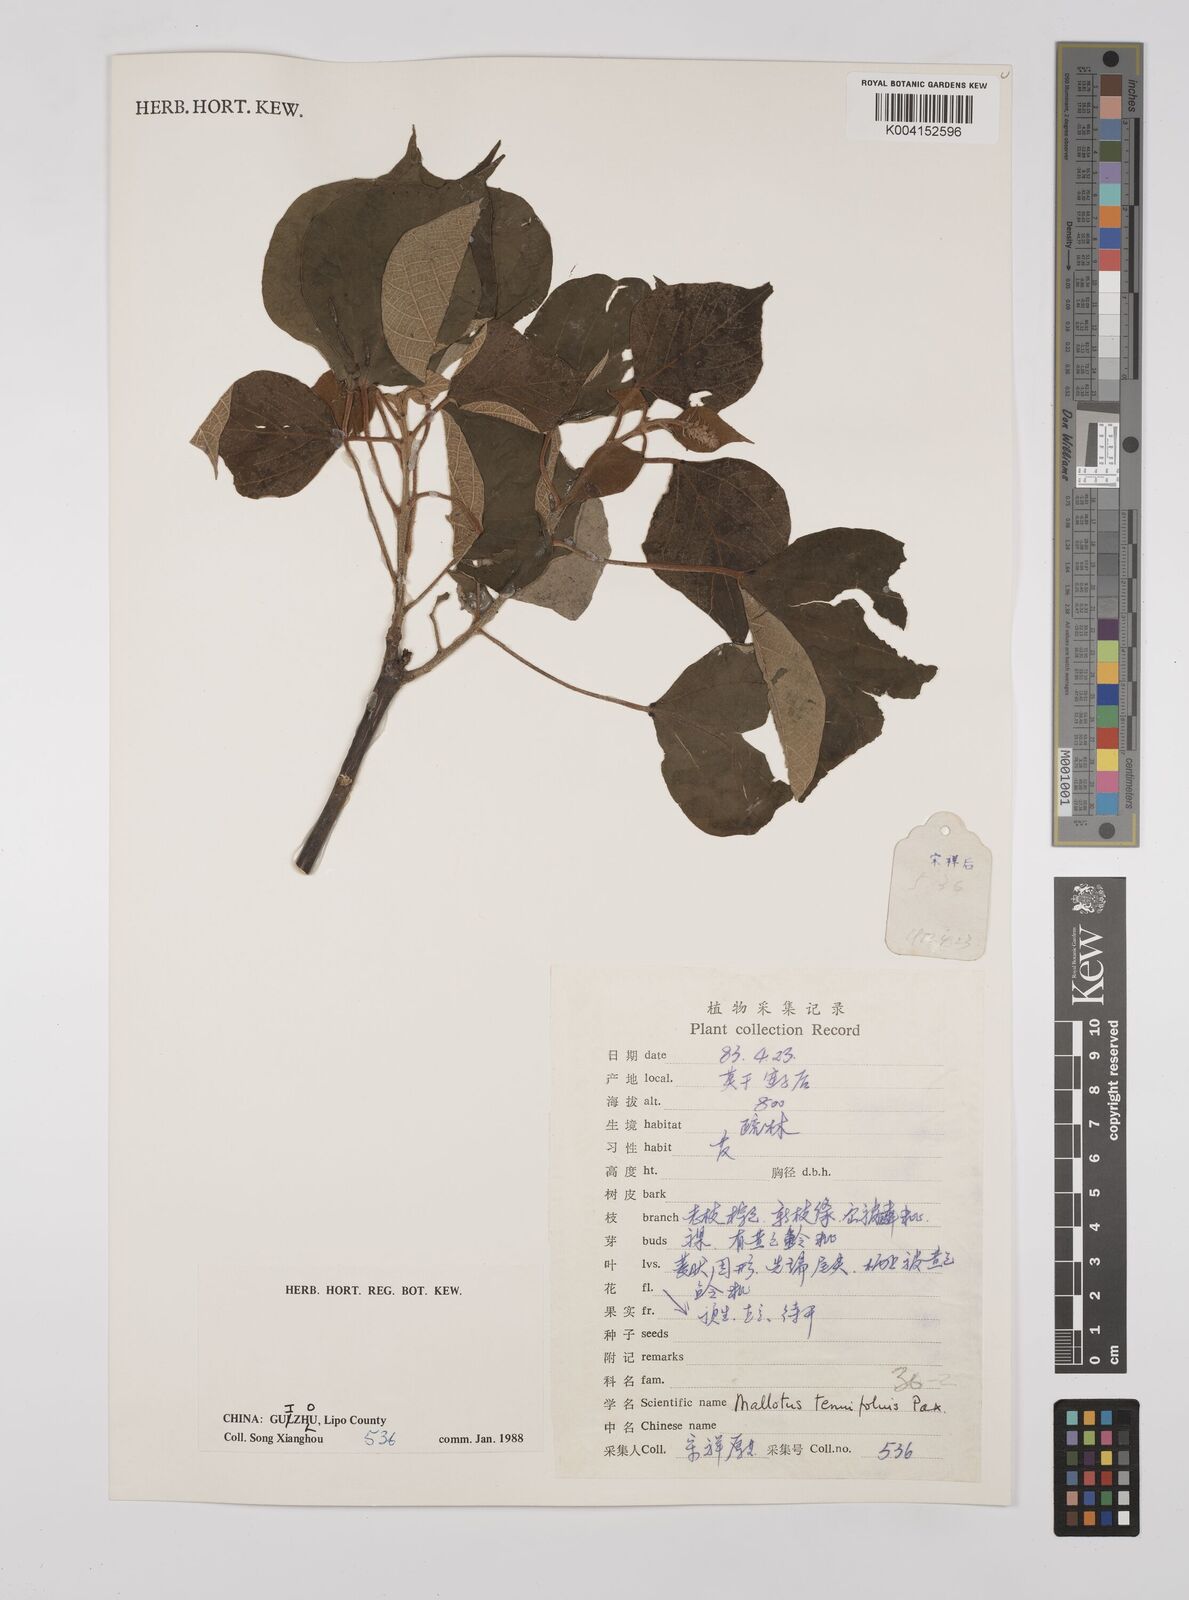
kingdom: Plantae
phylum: Tracheophyta
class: Magnoliopsida
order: Malpighiales
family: Euphorbiaceae
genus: Mallotus
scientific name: Mallotus tenuifolius
